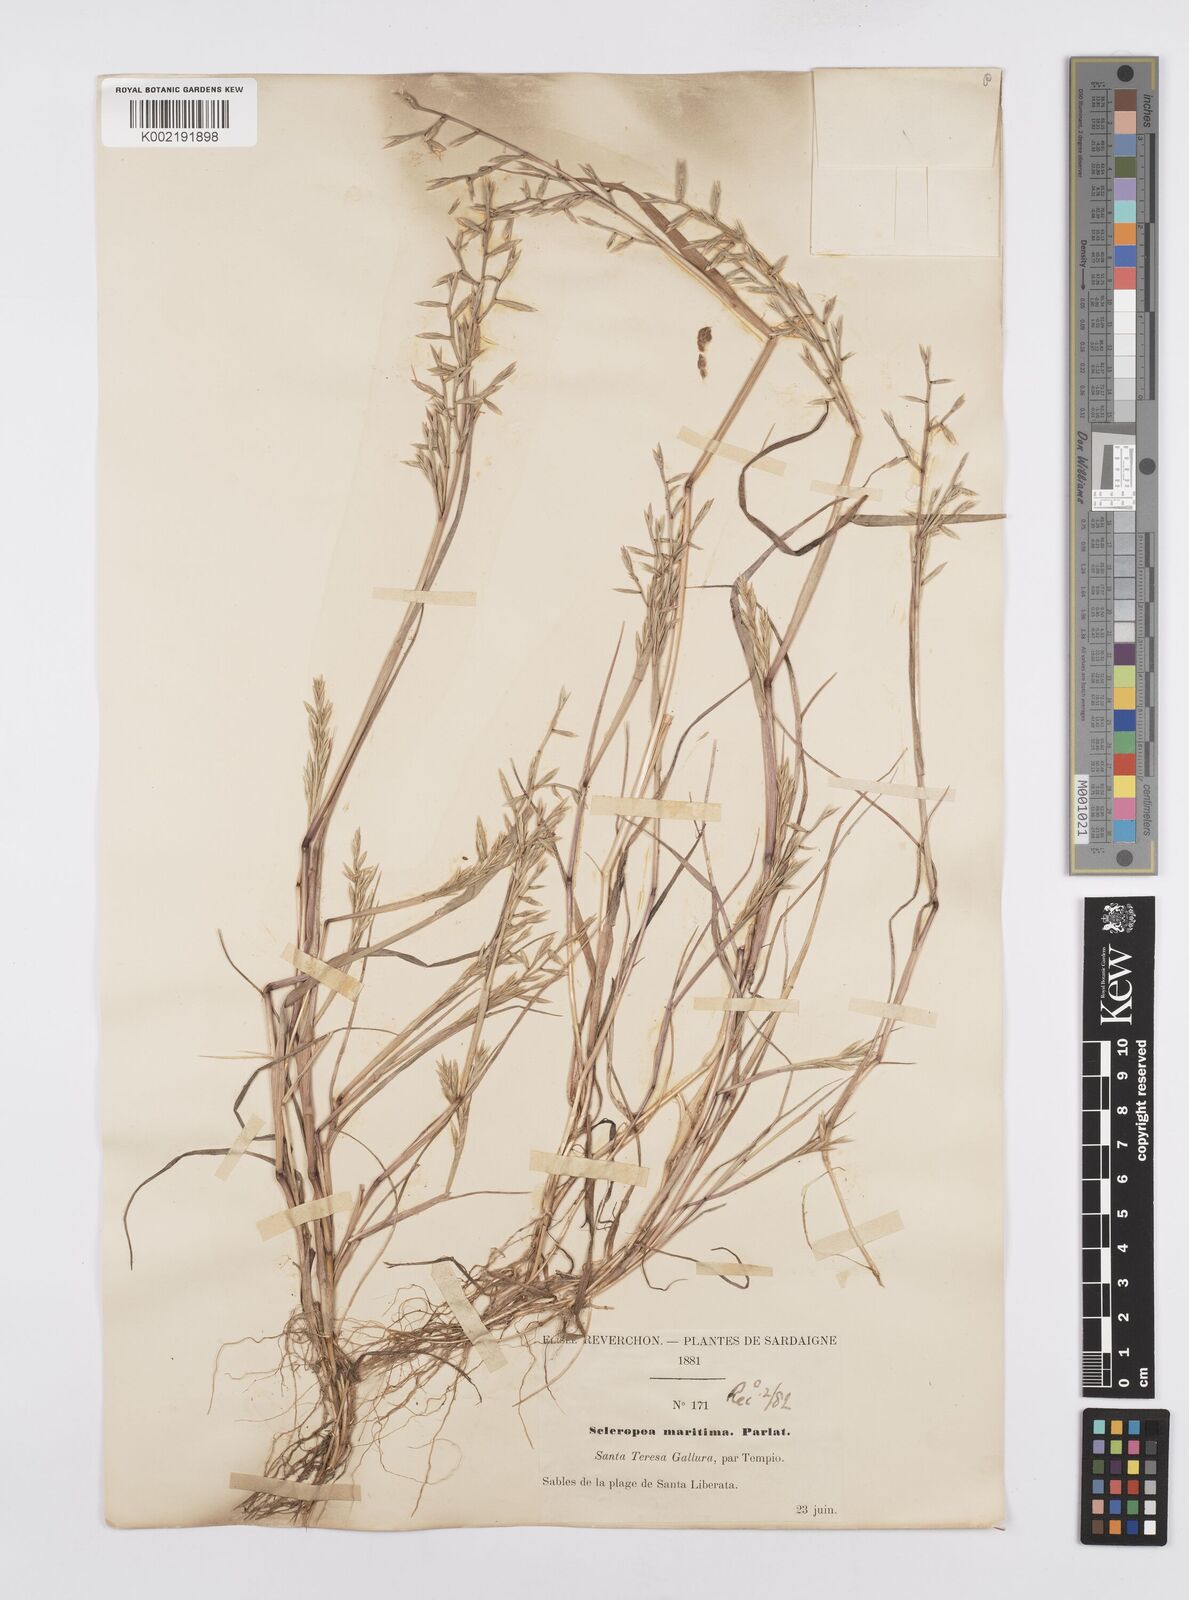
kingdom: Plantae
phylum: Tracheophyta
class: Liliopsida
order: Poales
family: Poaceae
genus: Cutandia
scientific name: Cutandia maritima
